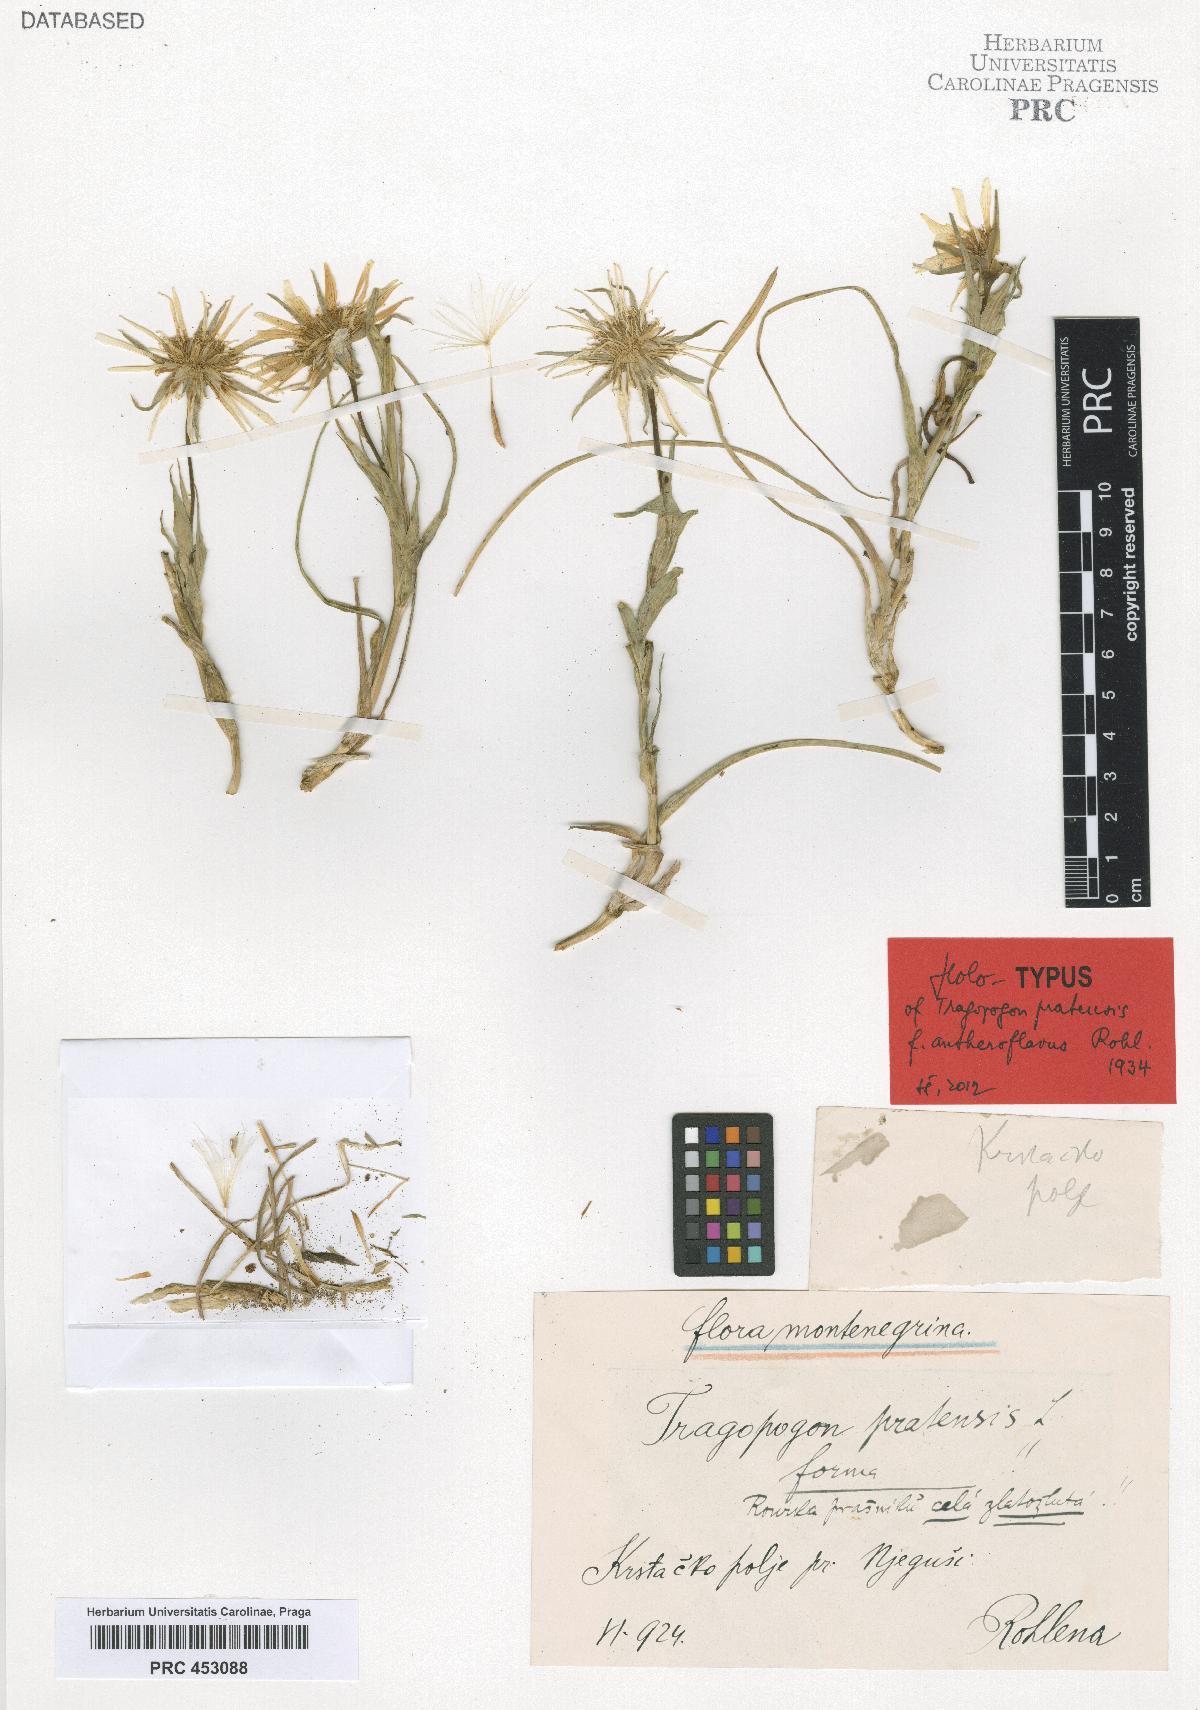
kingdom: Plantae
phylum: Tracheophyta
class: Magnoliopsida
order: Asterales
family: Asteraceae
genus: Tragopogon
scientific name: Tragopogon pratensis
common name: Goat's-beard
